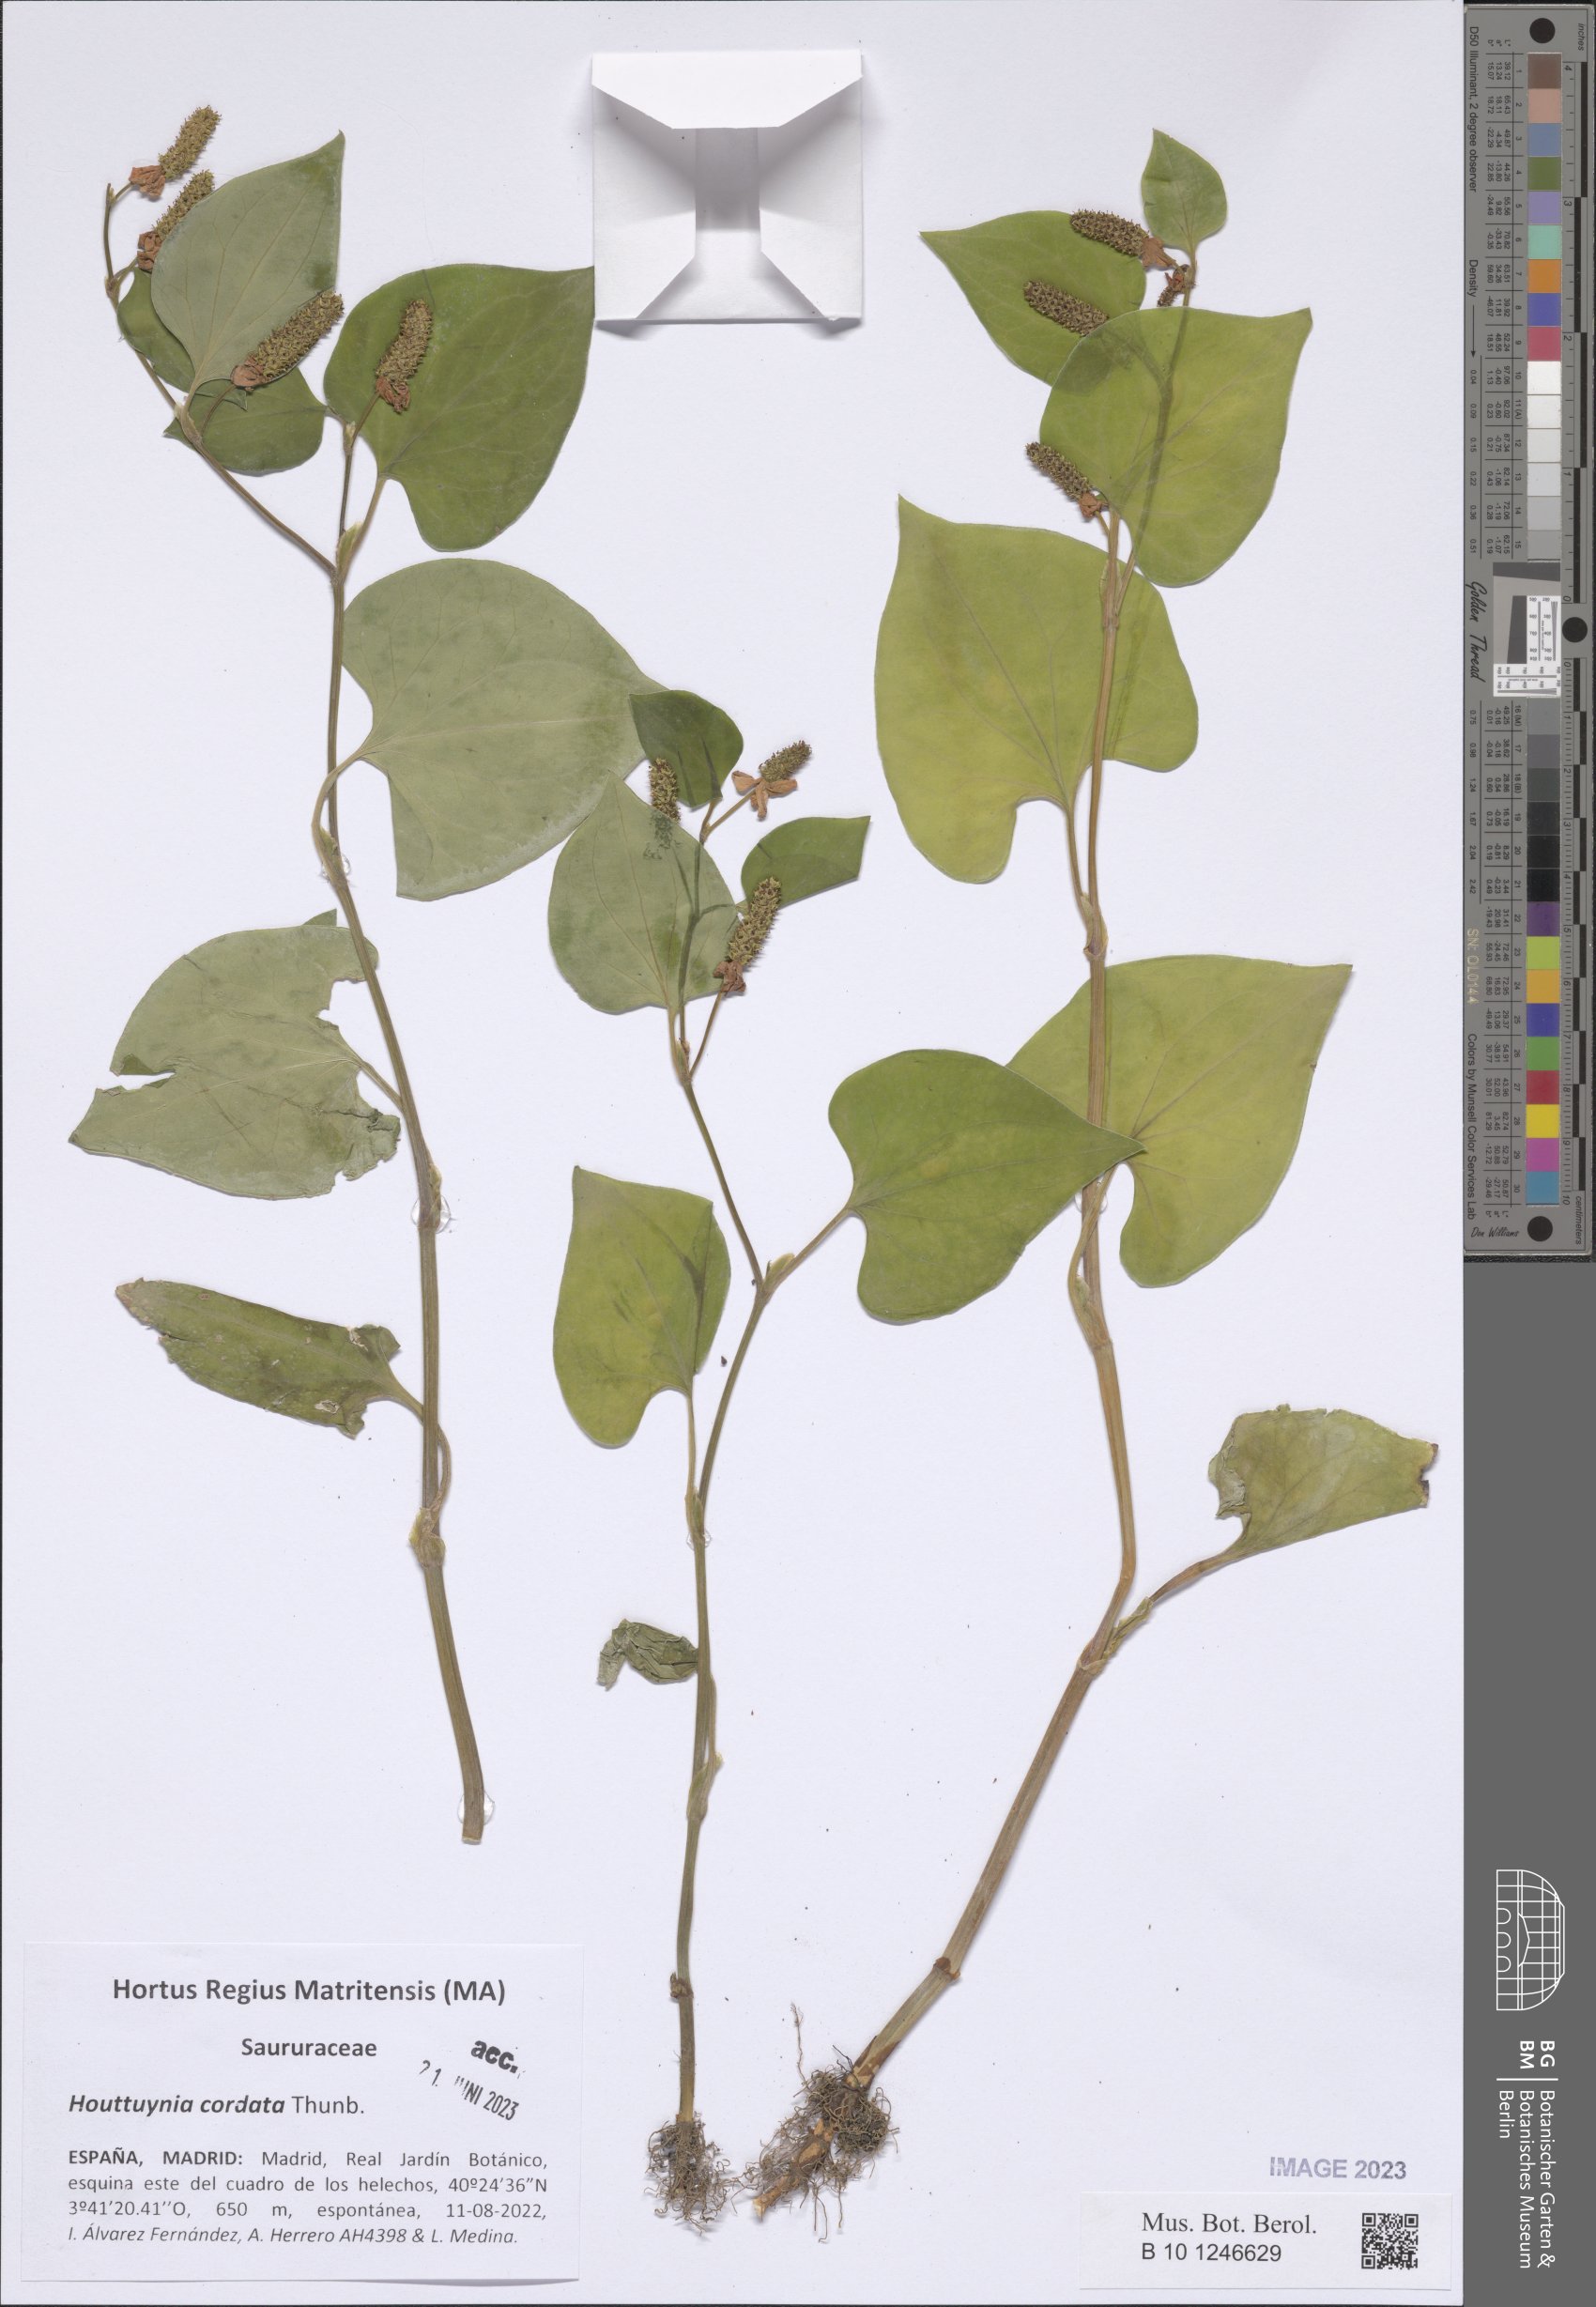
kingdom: Plantae
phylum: Tracheophyta
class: Magnoliopsida
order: Piperales
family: Saururaceae
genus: Houttuynia
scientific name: Houttuynia cordata
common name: Chameleon
